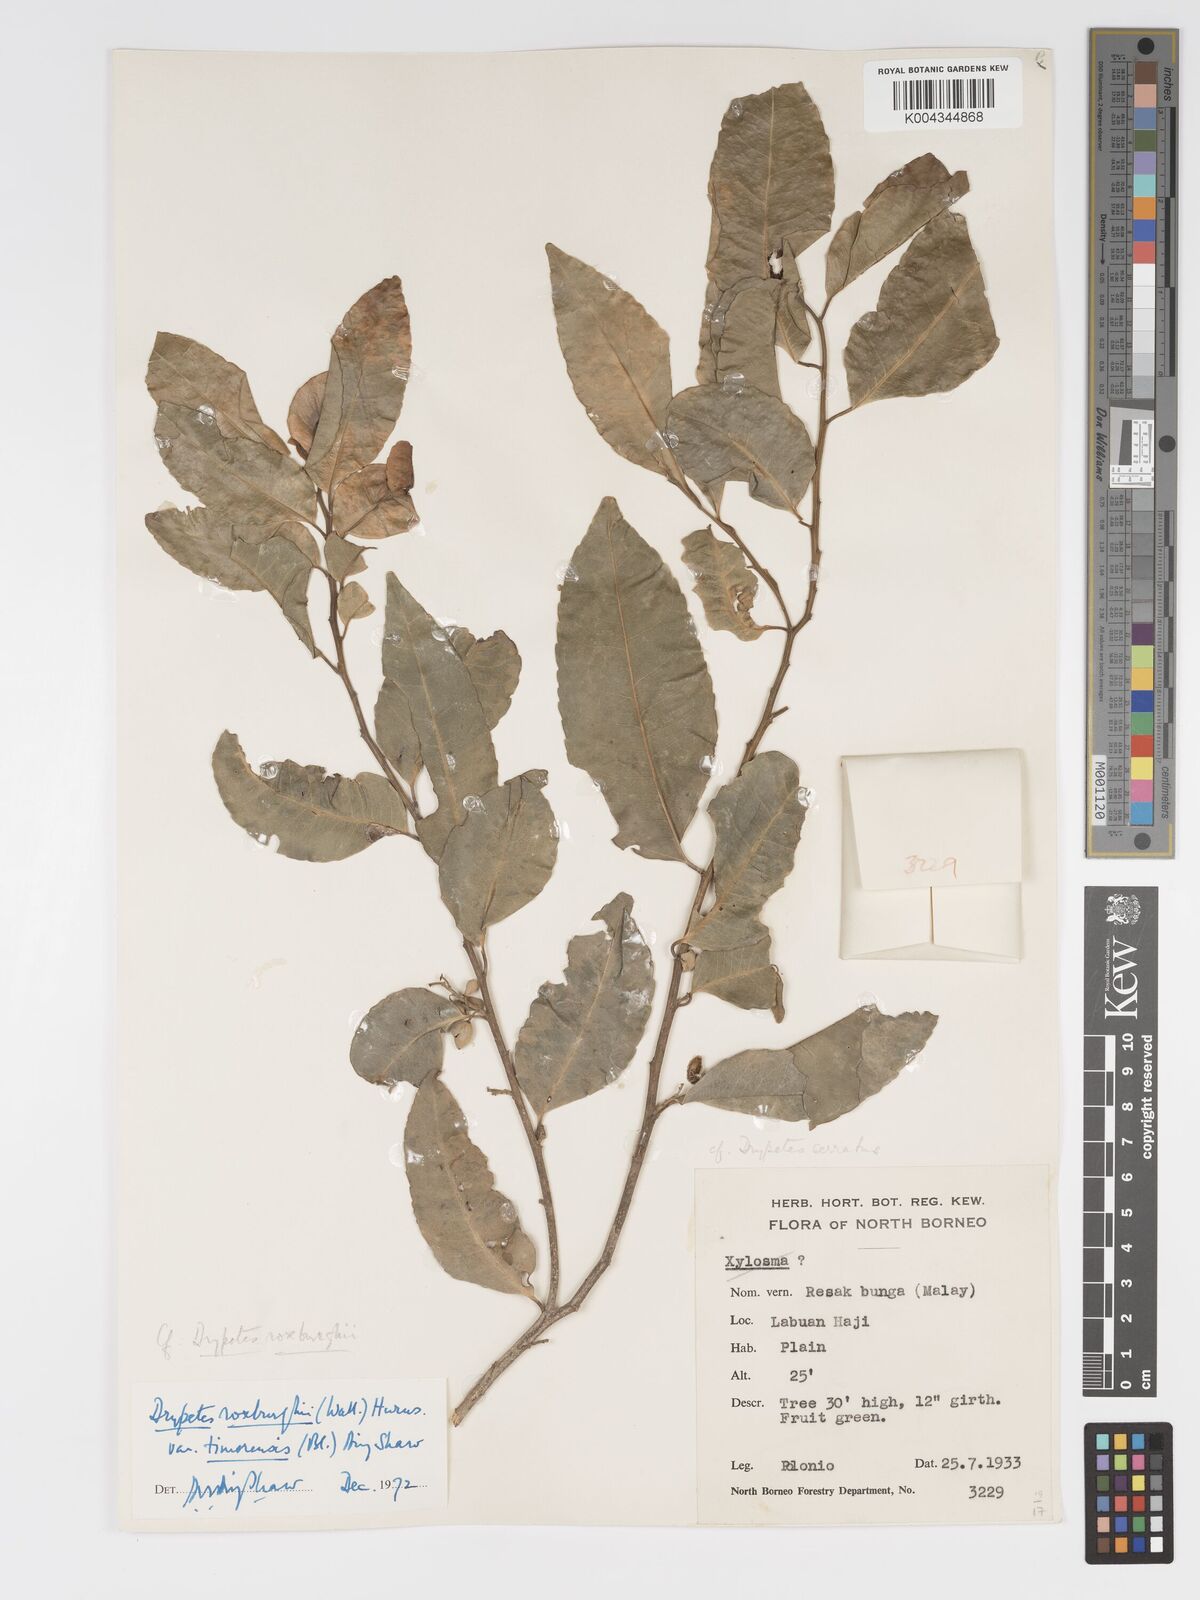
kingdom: Plantae
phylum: Tracheophyta
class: Magnoliopsida
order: Malpighiales
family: Putranjivaceae
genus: Putranjiva
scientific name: Putranjiva roxburghii
